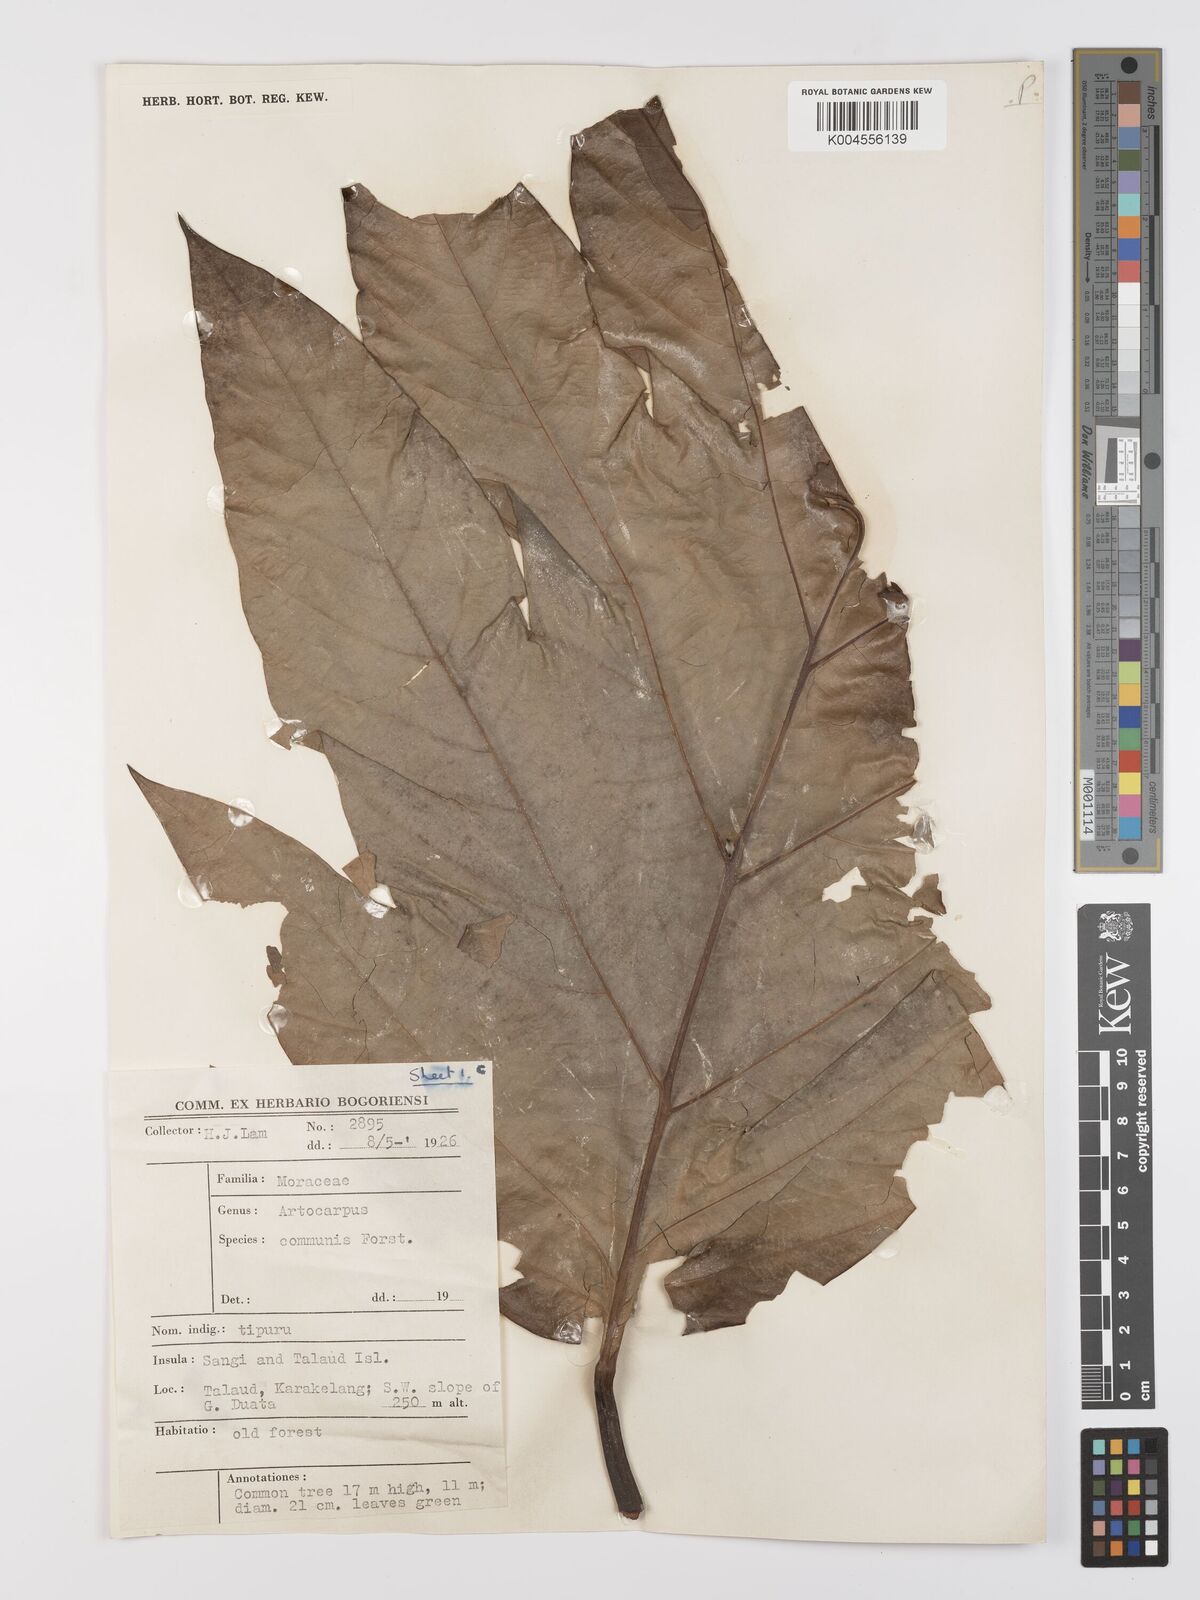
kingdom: Plantae
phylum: Tracheophyta
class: Magnoliopsida
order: Rosales
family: Moraceae
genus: Artocarpus
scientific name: Artocarpus altilis
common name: Breadfruit
